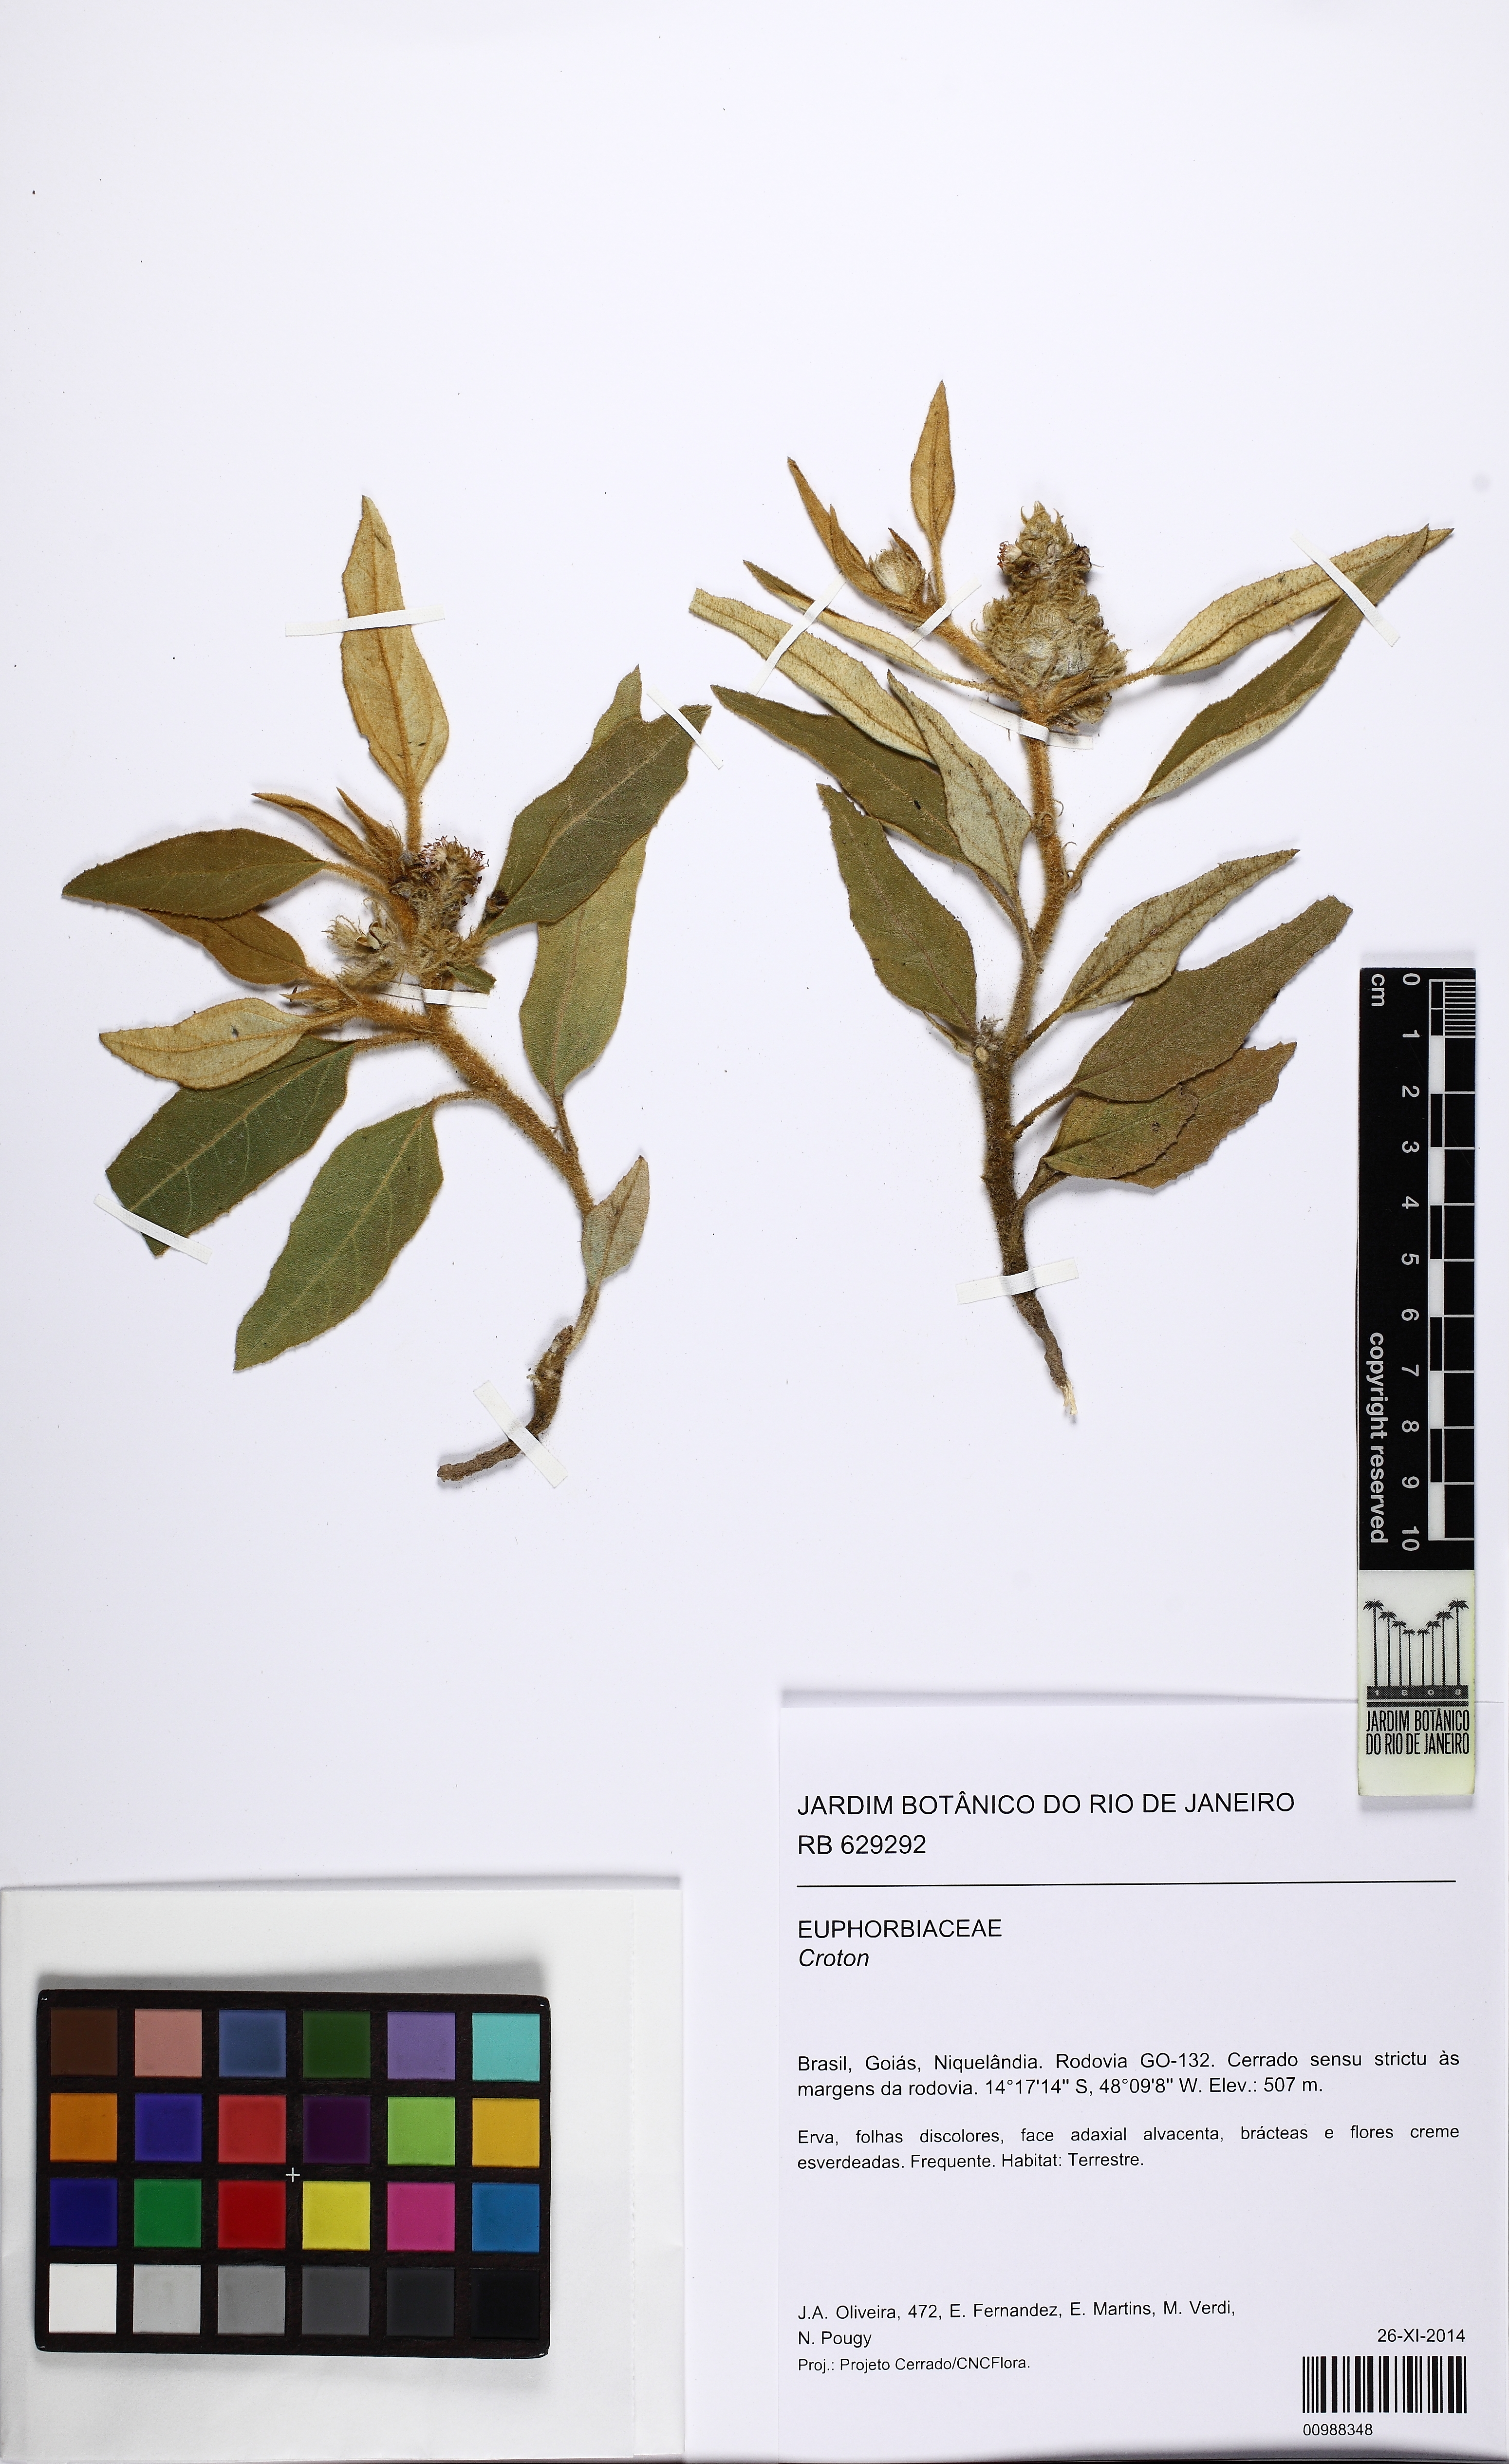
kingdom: Plantae
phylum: Tracheophyta
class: Magnoliopsida
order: Malpighiales
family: Euphorbiaceae
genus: Croton
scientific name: Croton solanaceus
